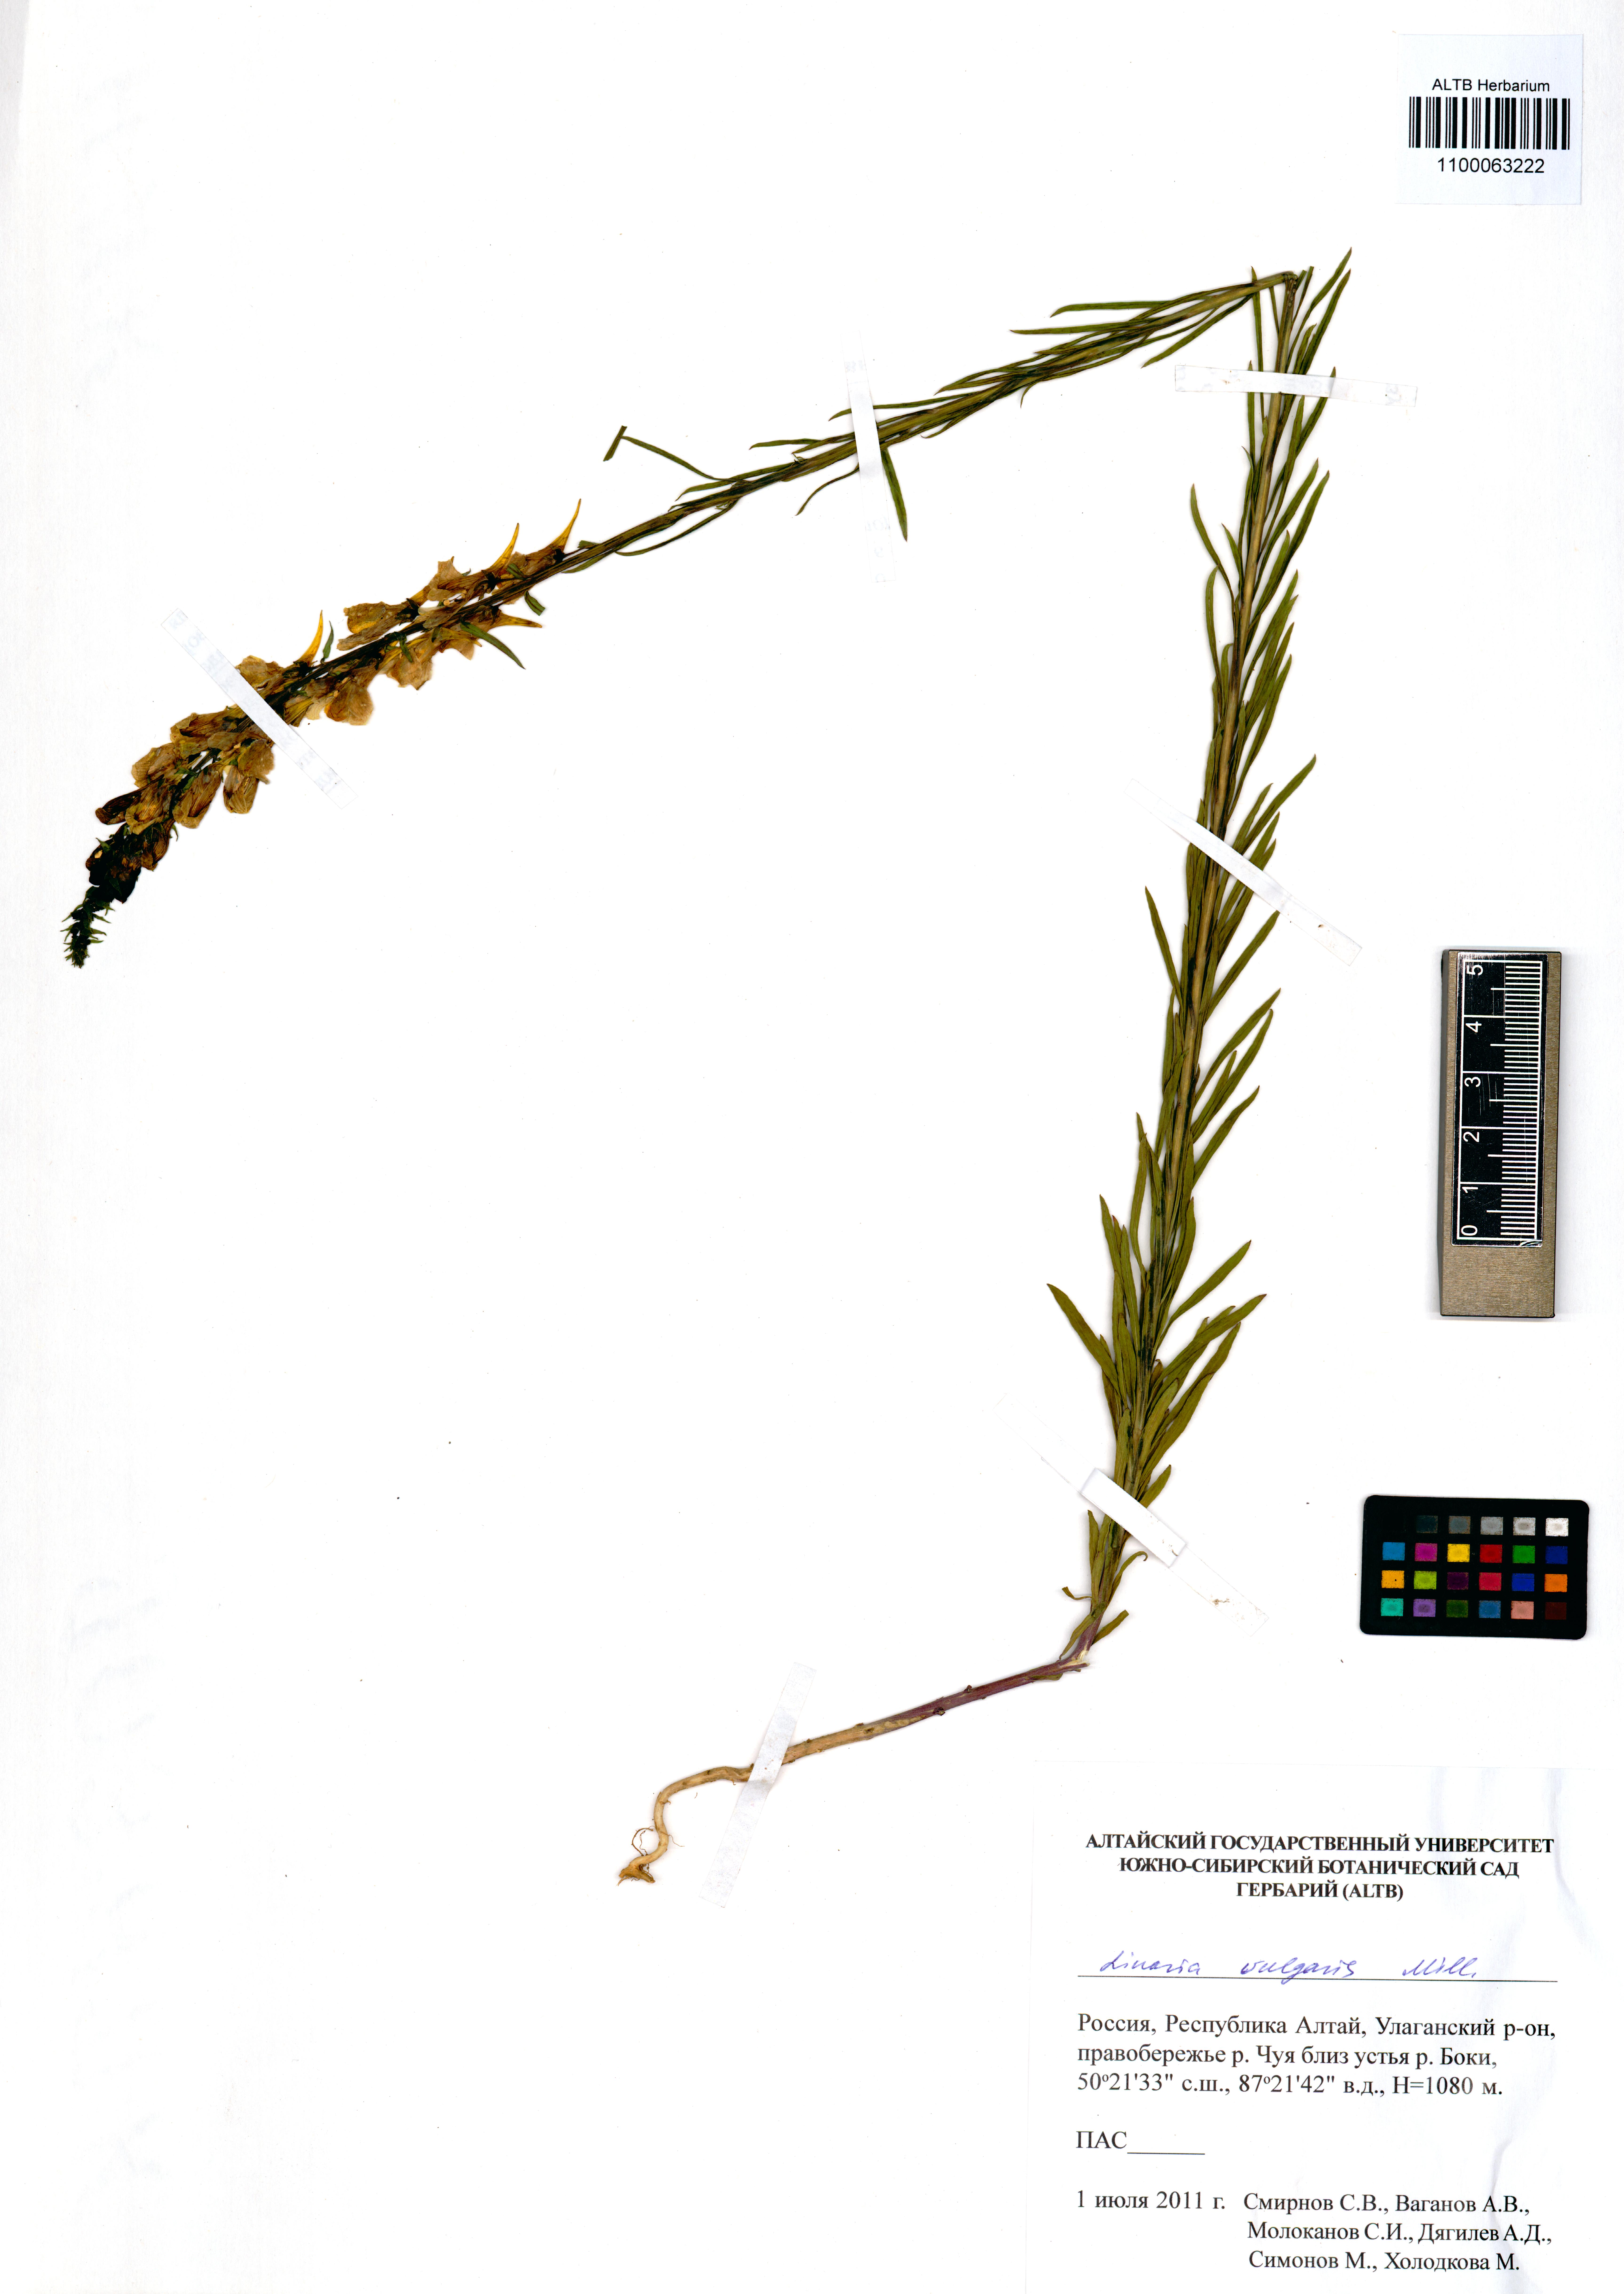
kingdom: Plantae
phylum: Tracheophyta
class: Magnoliopsida
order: Lamiales
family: Plantaginaceae
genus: Linaria
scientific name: Linaria vulgaris
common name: Butter and eggs
